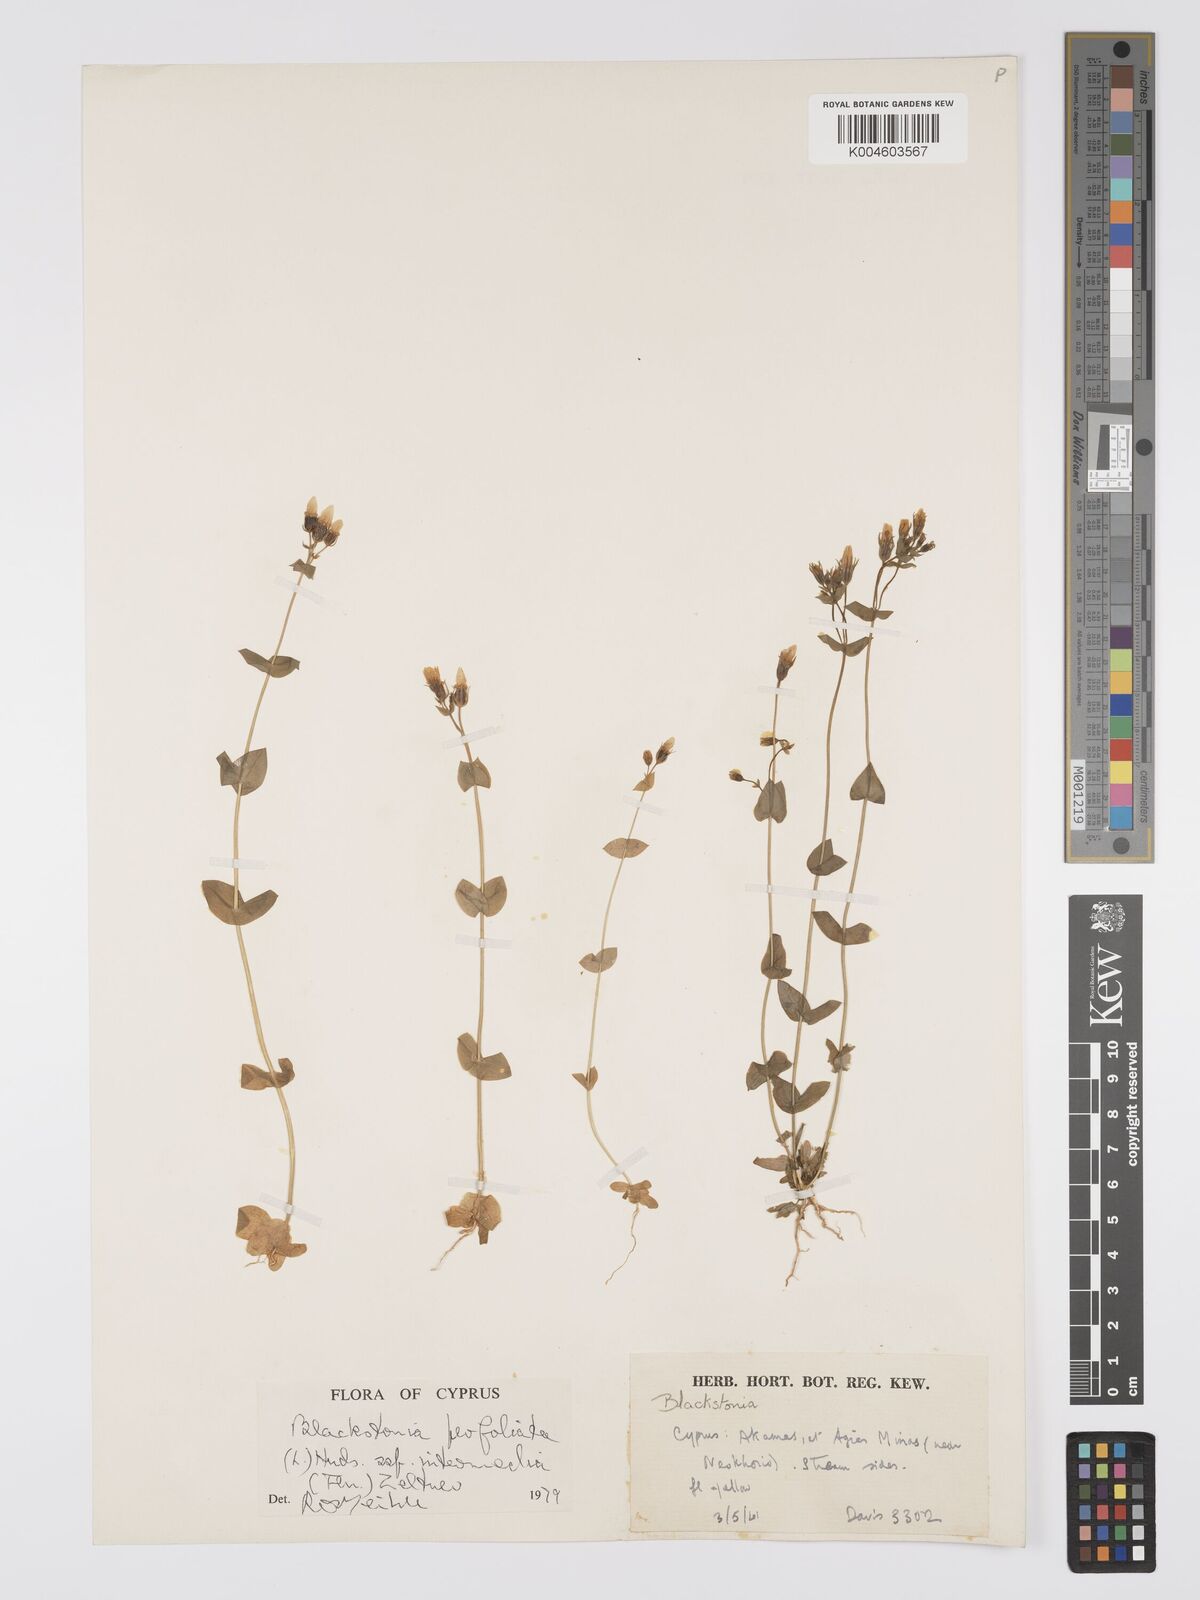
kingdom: Plantae
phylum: Tracheophyta
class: Magnoliopsida
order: Gentianales
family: Gentianaceae
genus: Blackstonia
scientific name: Blackstonia perfoliata
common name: Yellow-wort
